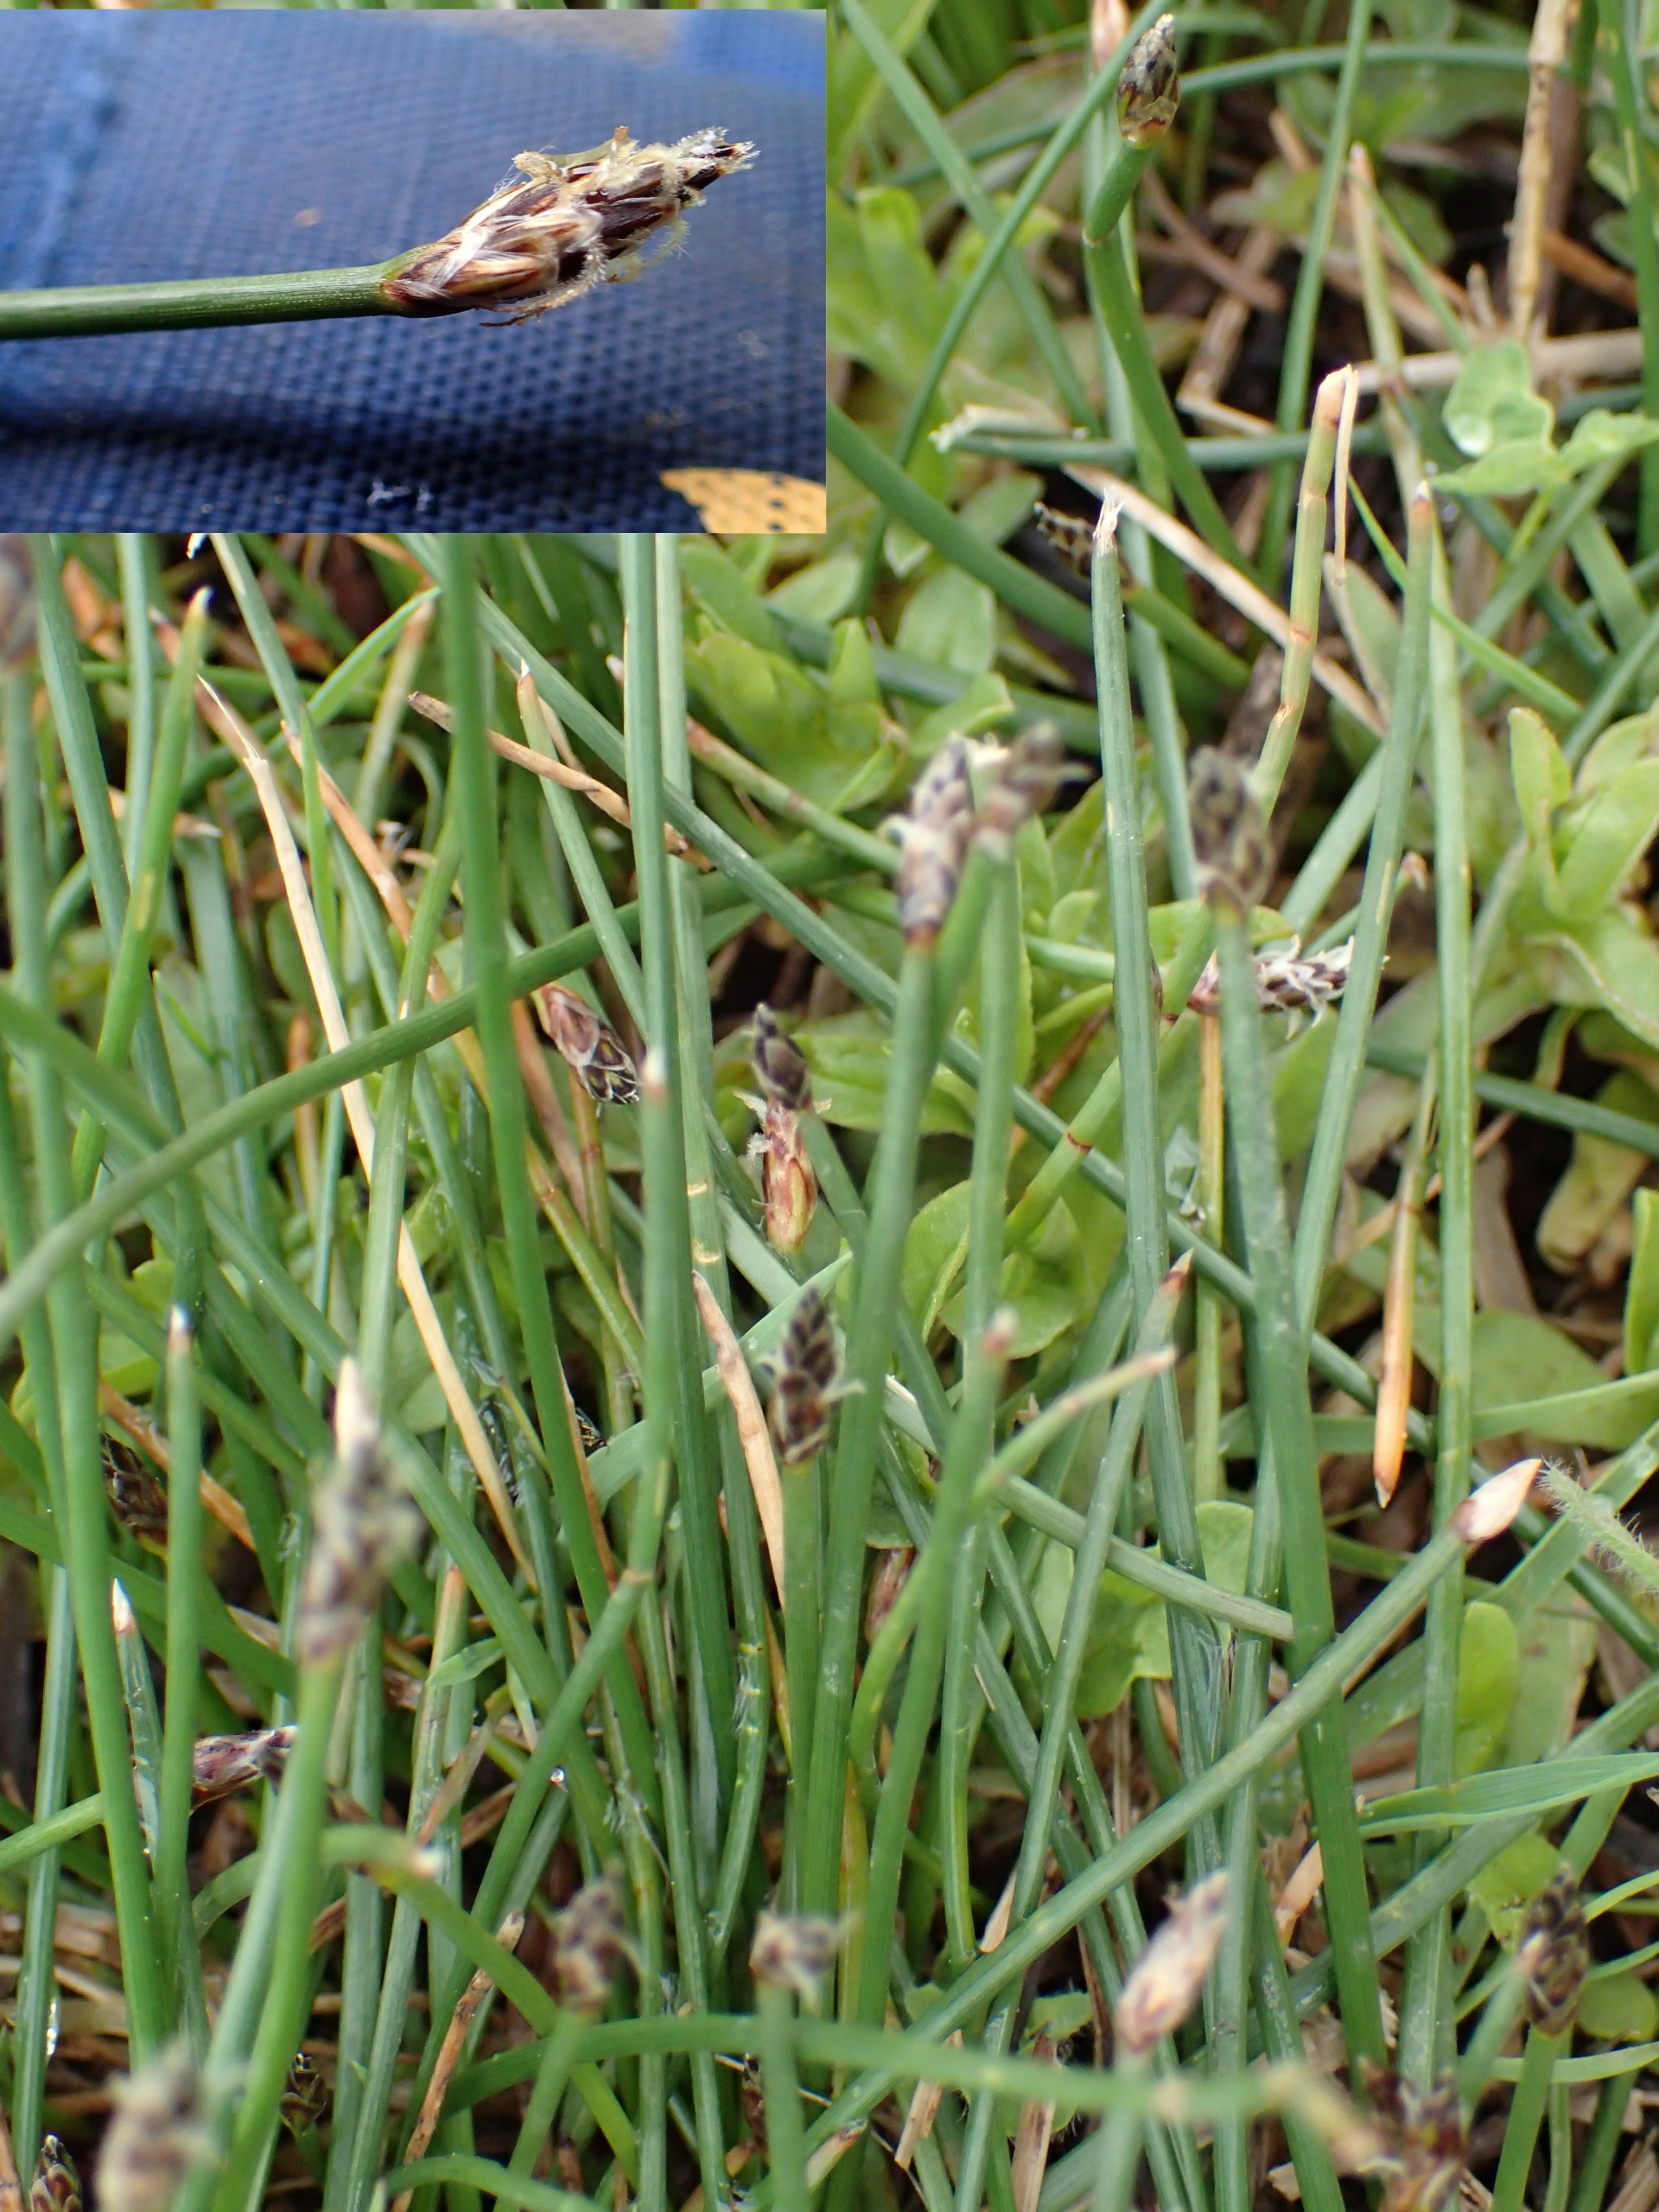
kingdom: Plantae
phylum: Tracheophyta
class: Liliopsida
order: Poales
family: Cyperaceae
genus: Eleocharis
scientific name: Eleocharis palustris
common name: Almindelig sumpstrå
